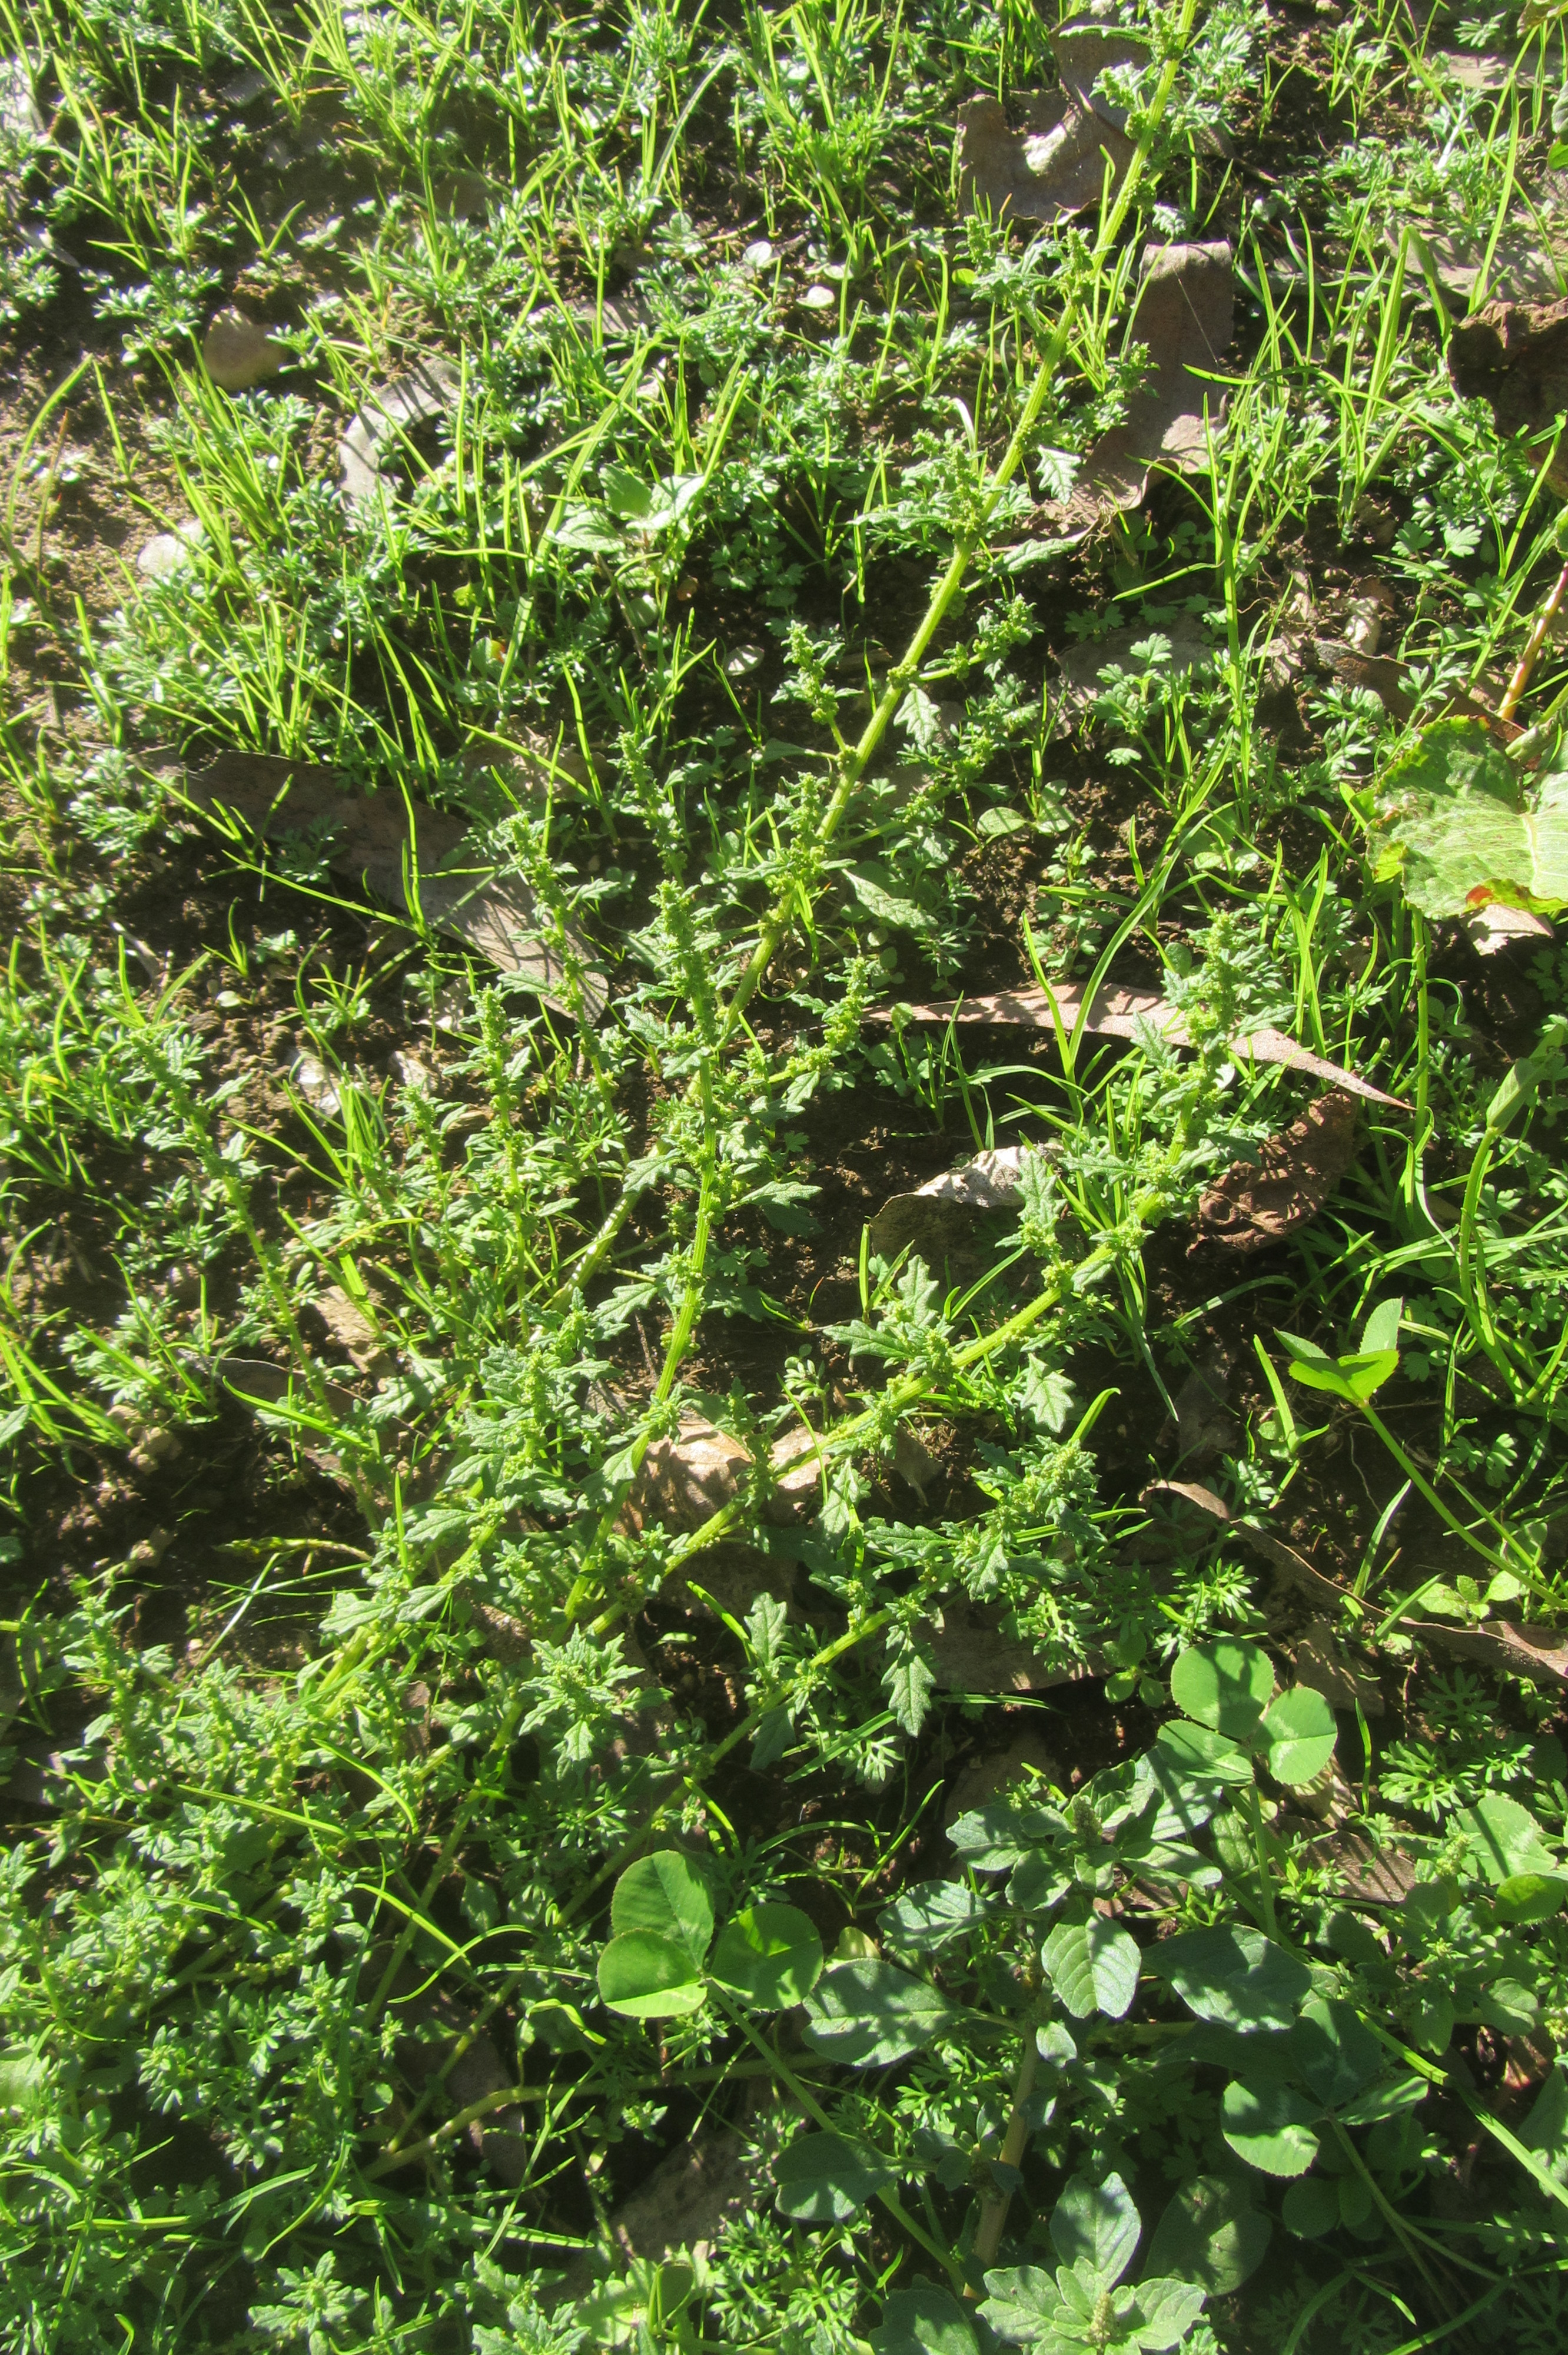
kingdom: Plantae
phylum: Tracheophyta
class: Magnoliopsida
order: Caryophyllales
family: Amaranthaceae
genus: Dysphania
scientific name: Dysphania pumilio
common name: Clammy goosefoot
